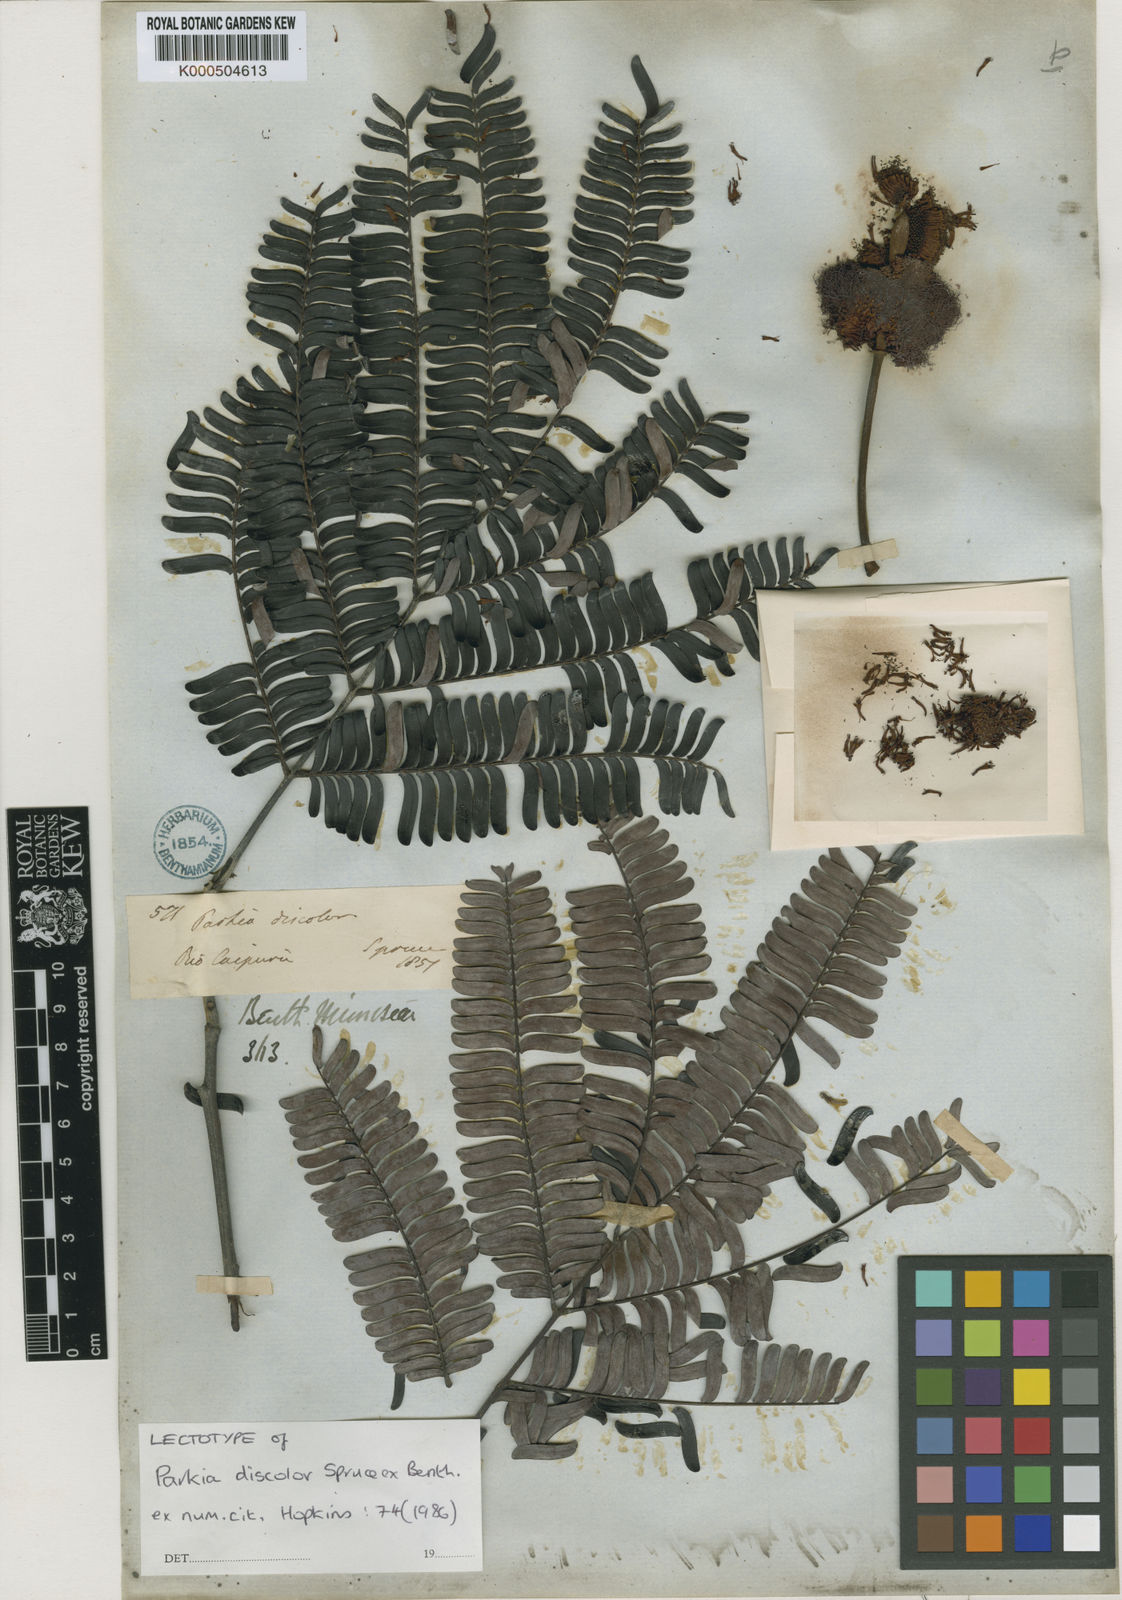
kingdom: Plantae
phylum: Tracheophyta
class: Magnoliopsida
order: Fabales
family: Fabaceae
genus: Parkia
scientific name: Parkia discolor
